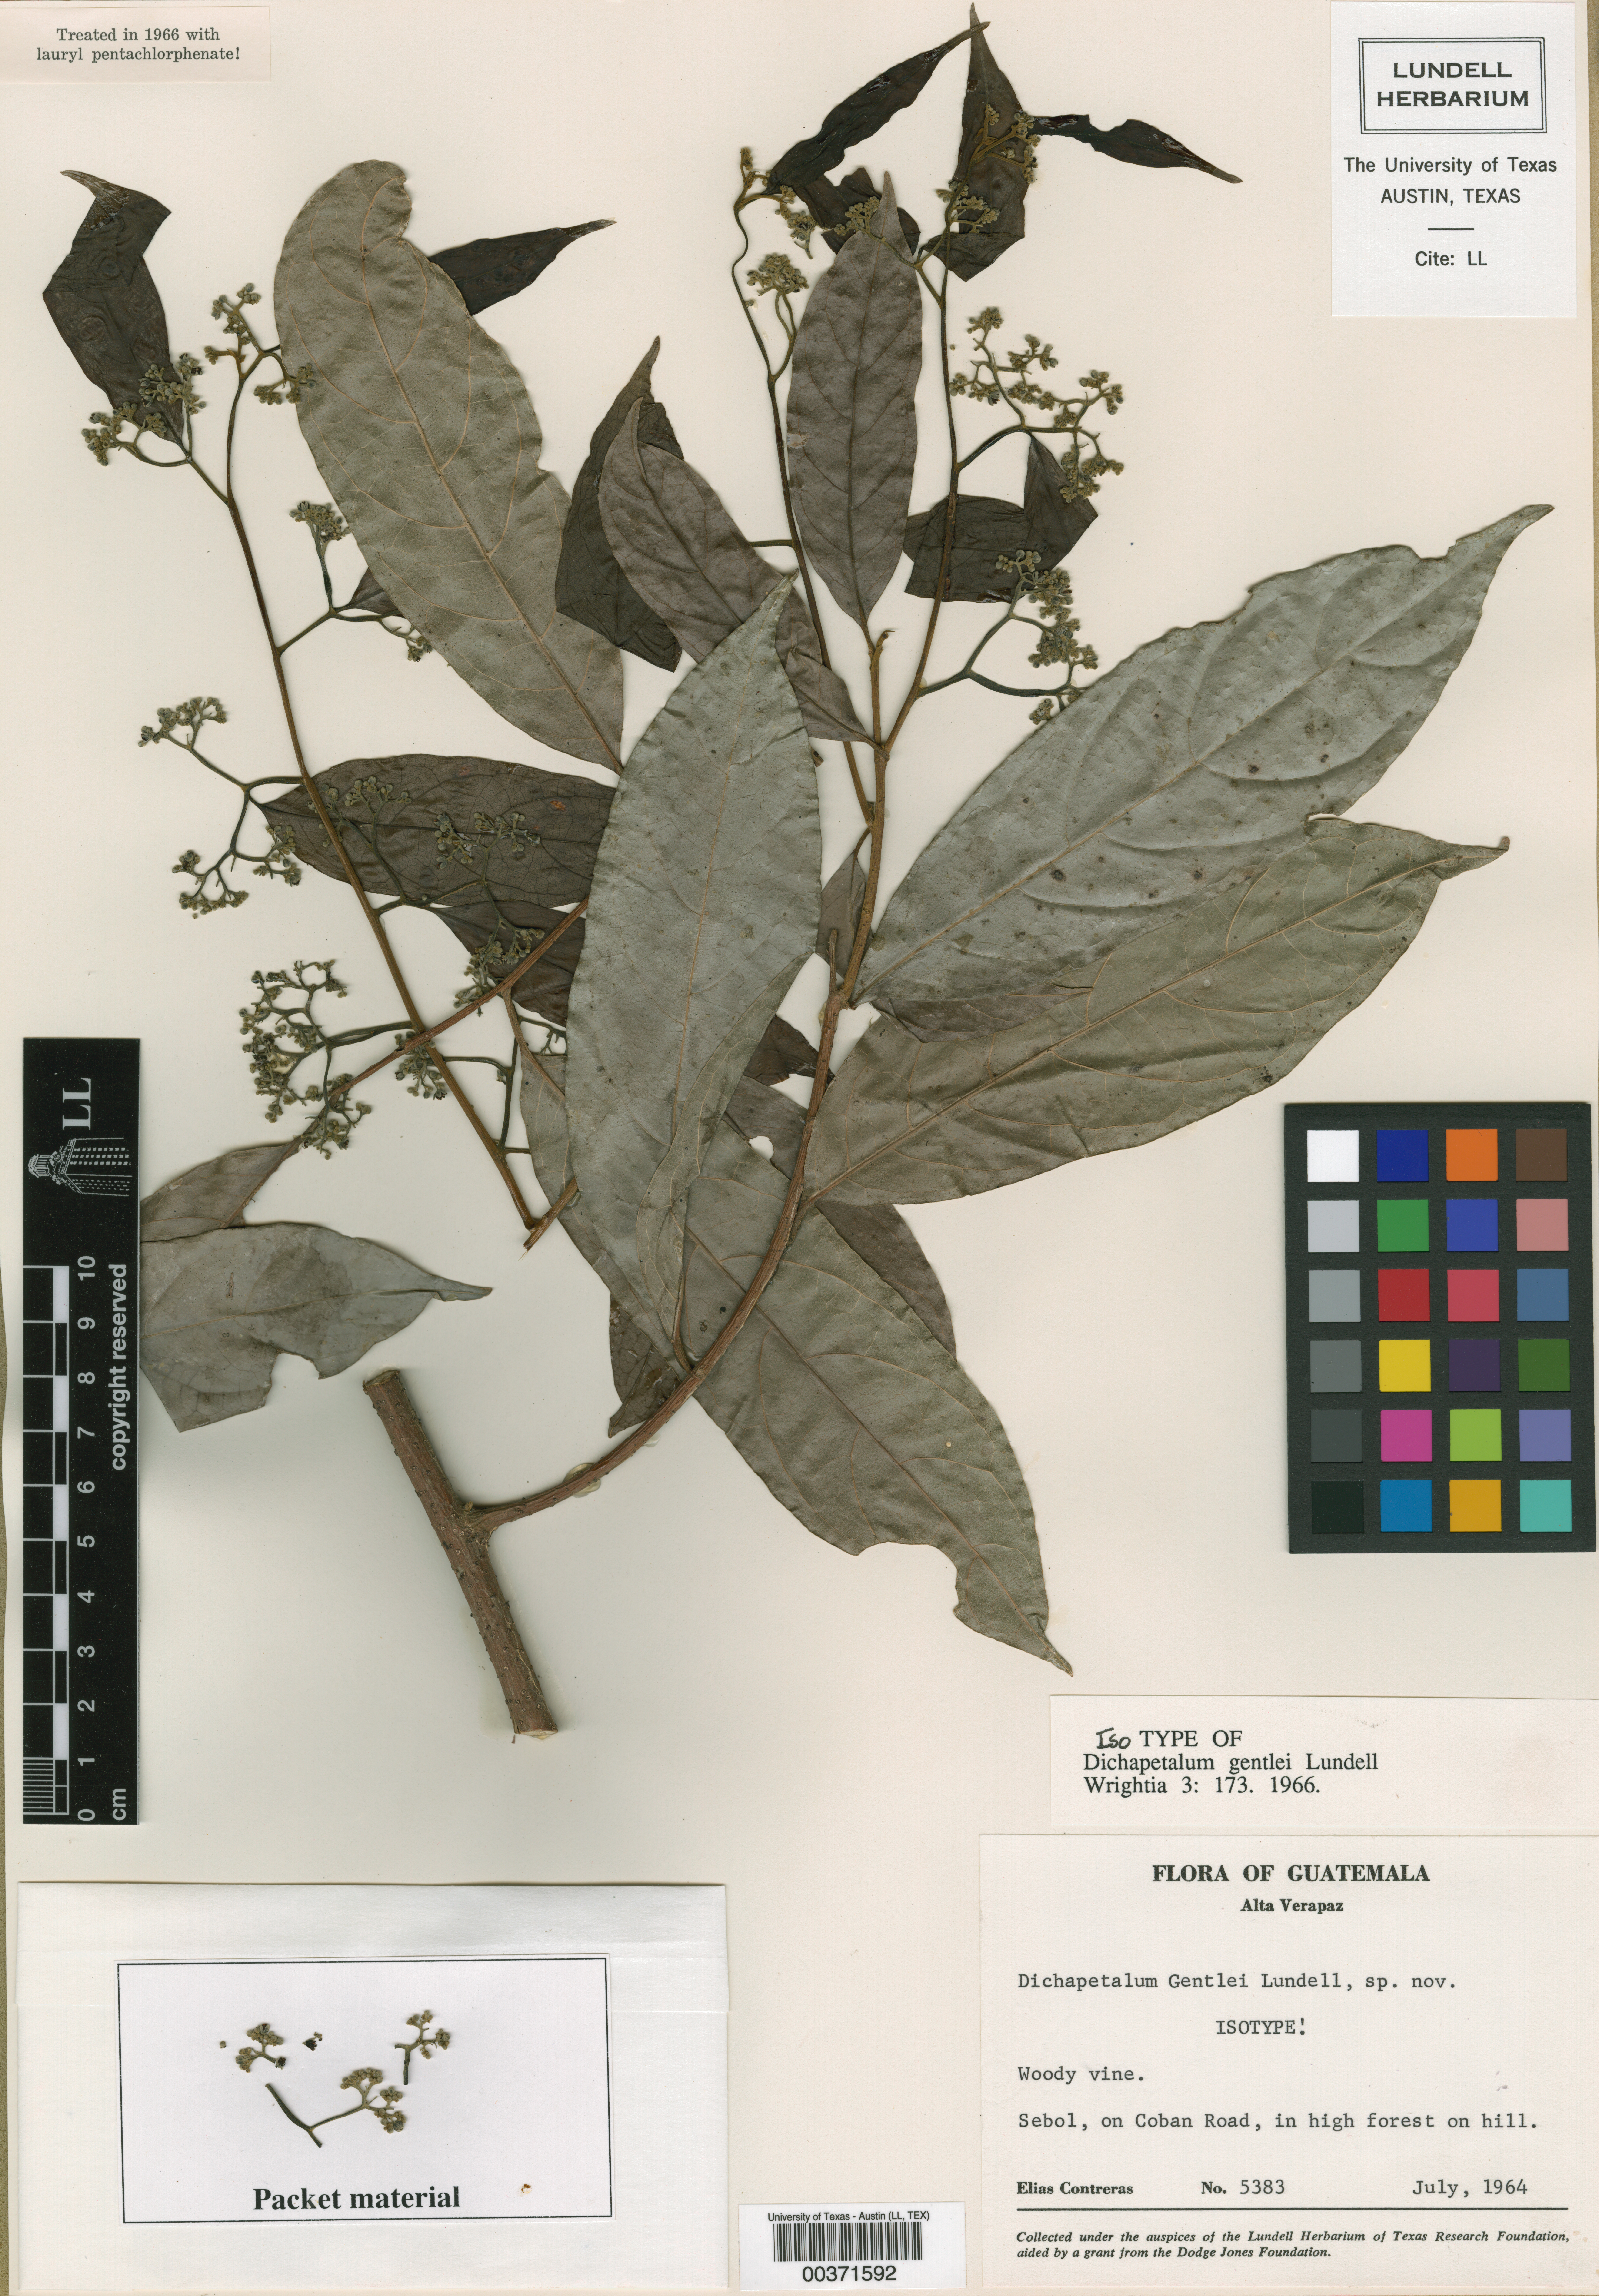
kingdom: Plantae
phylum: Tracheophyta
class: Magnoliopsida
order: Malpighiales
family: Dichapetalaceae
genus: Dichapetalum
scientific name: Dichapetalum donnell-smithii
